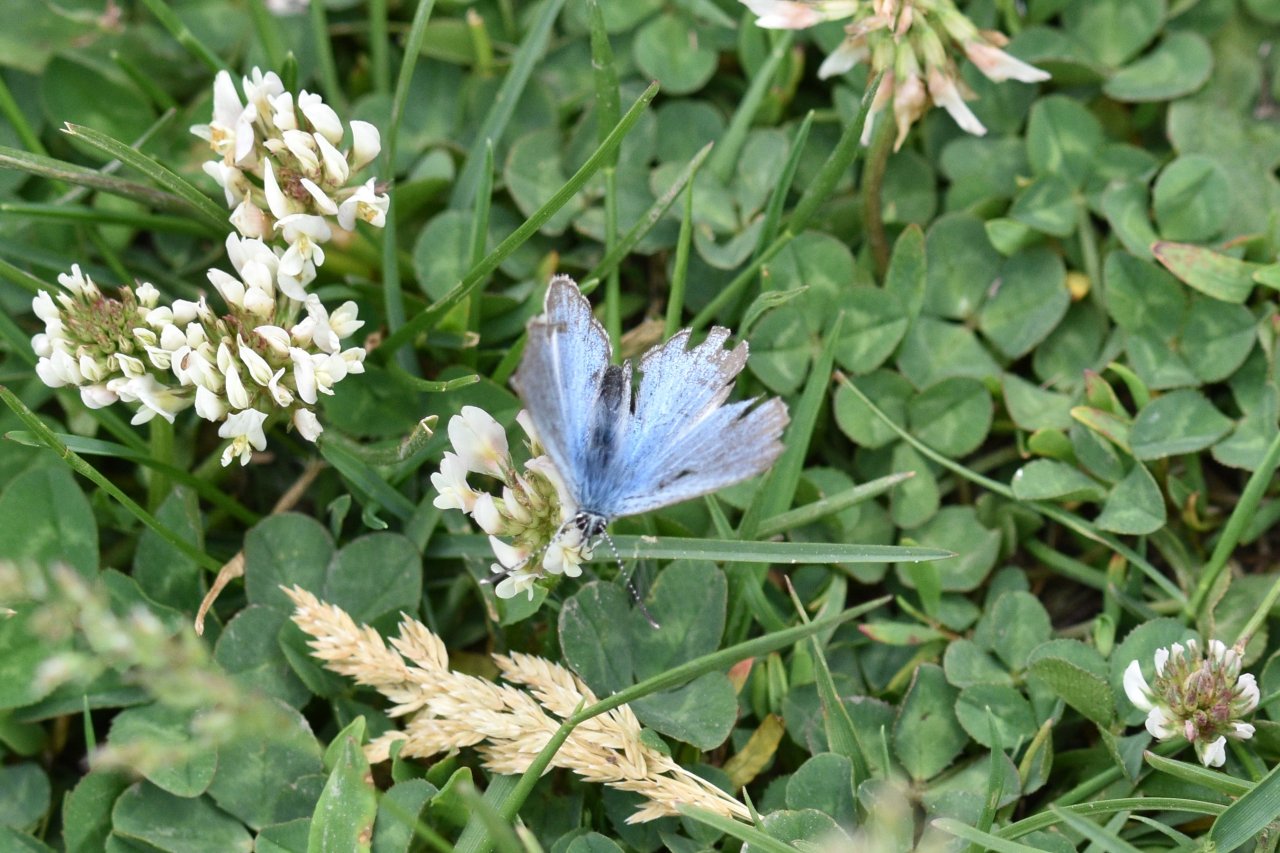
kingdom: Animalia
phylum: Arthropoda
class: Insecta
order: Lepidoptera
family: Lycaenidae
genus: Glaucopsyche
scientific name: Glaucopsyche lygdamus
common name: Silvery Blue
